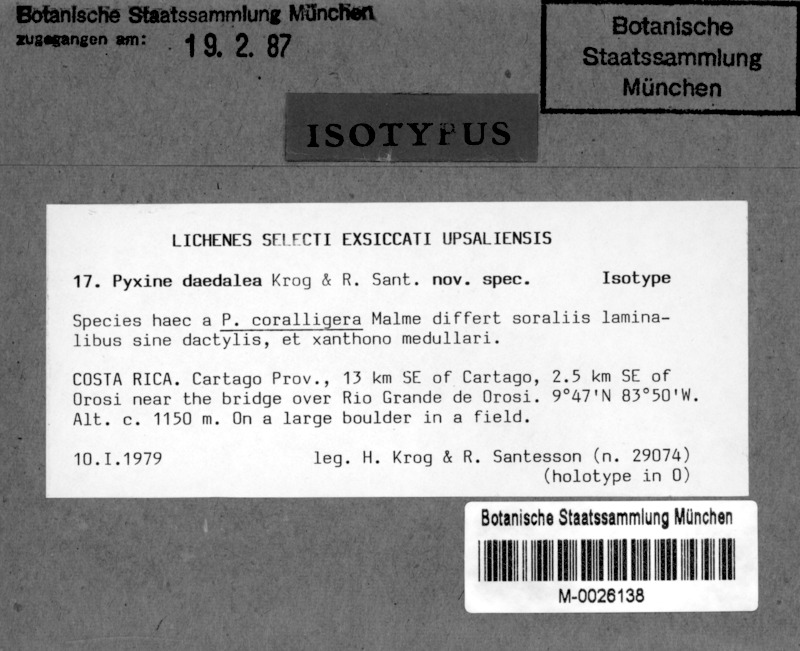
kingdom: Fungi
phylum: Ascomycota
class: Lecanoromycetes
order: Caliciales
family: Caliciaceae
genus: Pyxine
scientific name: Pyxine daedalea
